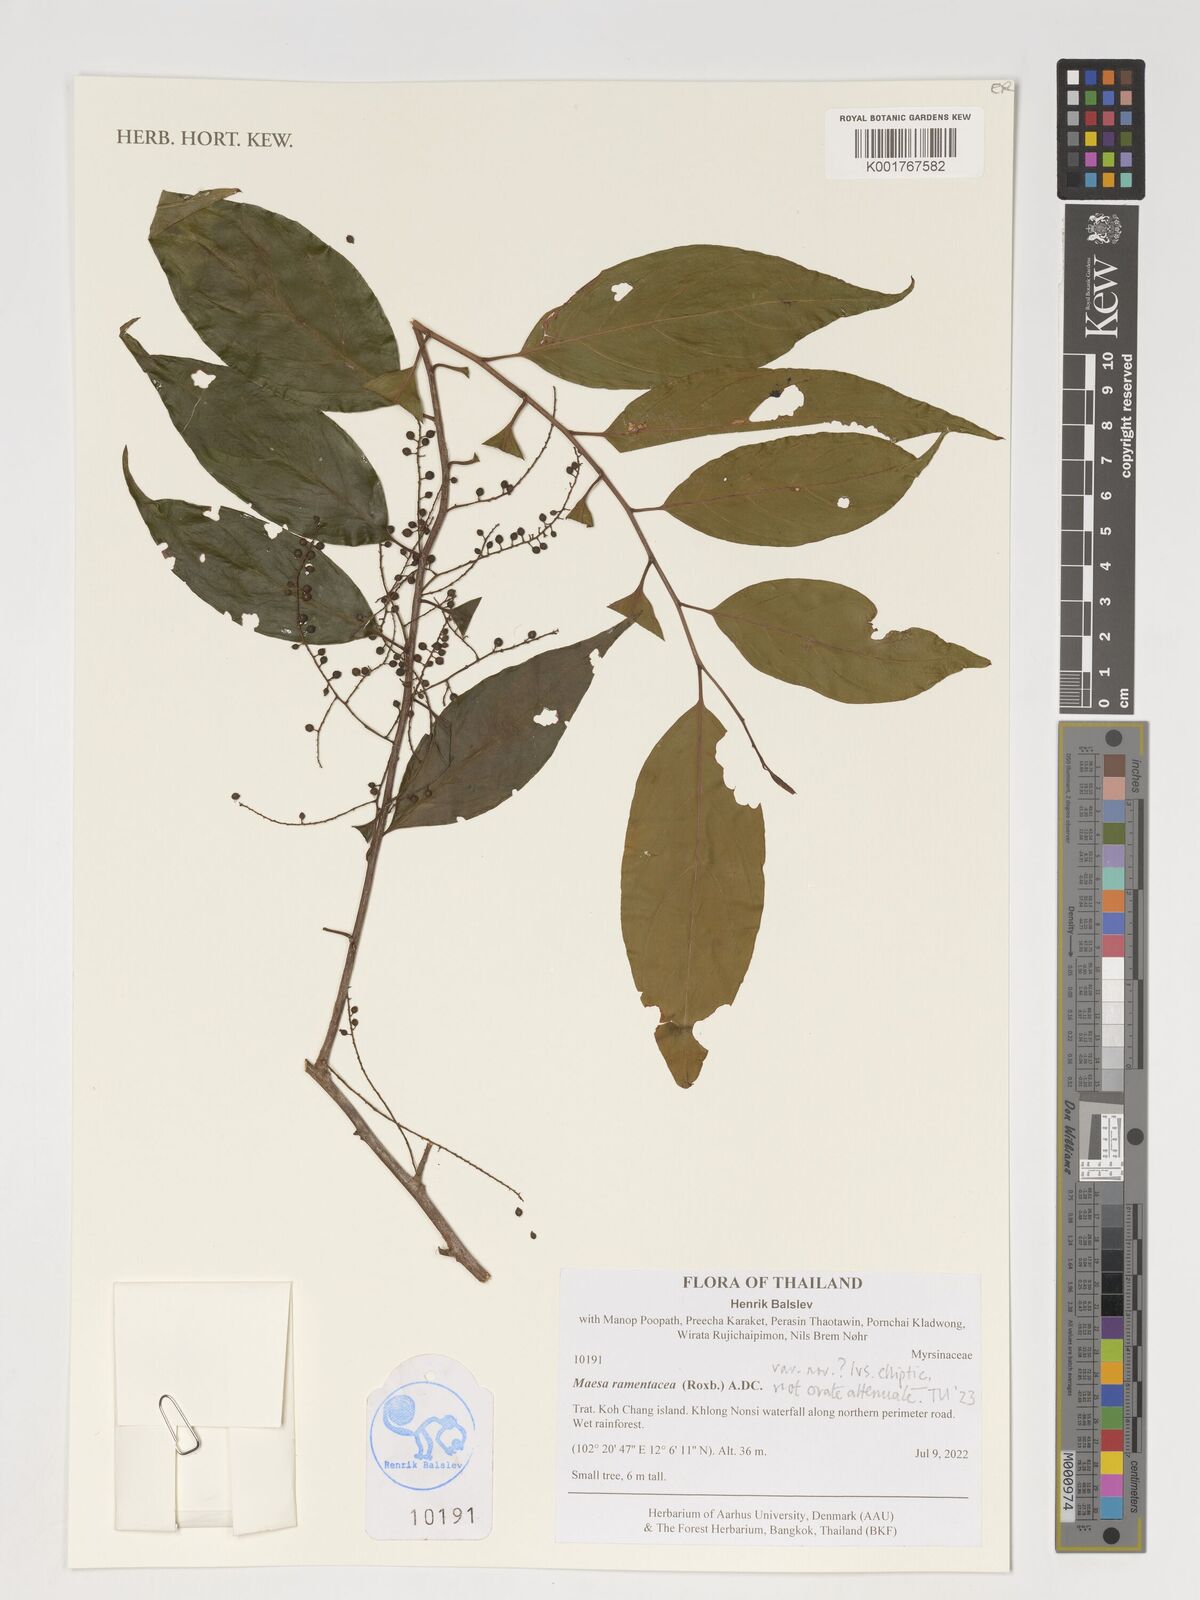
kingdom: Plantae
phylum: Tracheophyta
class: Magnoliopsida
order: Ericales
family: Primulaceae
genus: Maesa
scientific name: Maesa ramentacea
